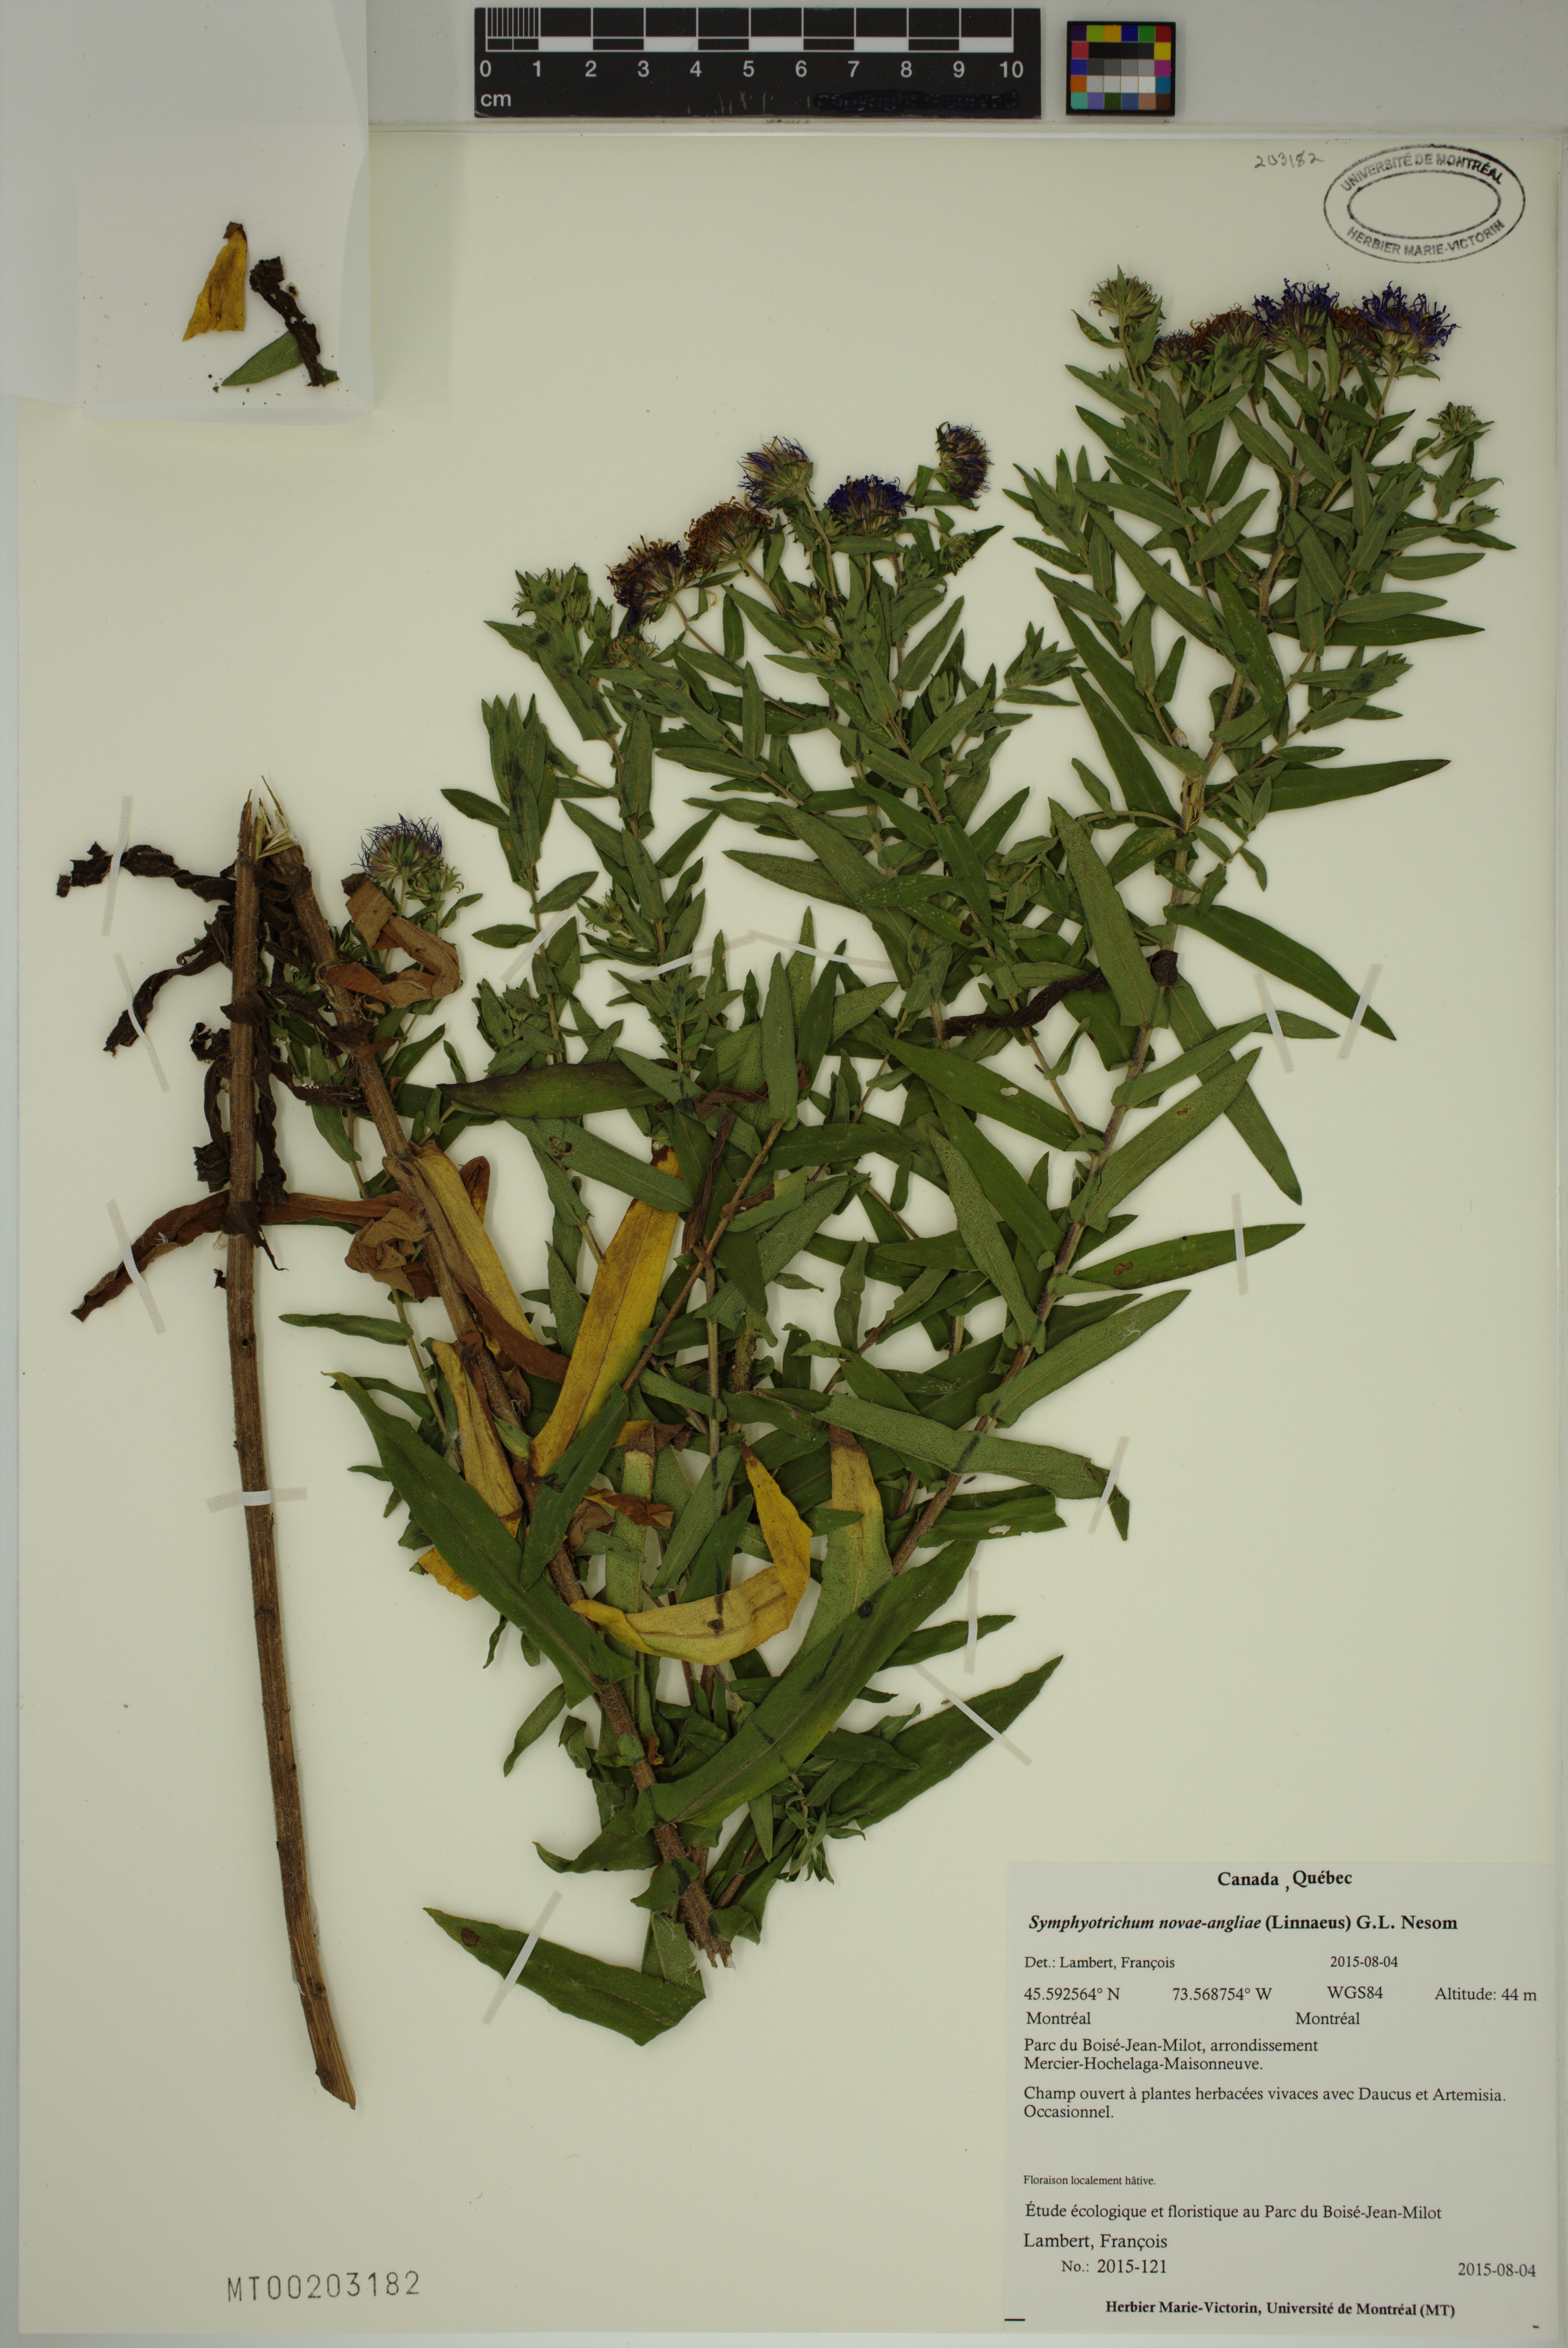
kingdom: Plantae
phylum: Tracheophyta
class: Magnoliopsida
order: Asterales
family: Asteraceae
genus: Symphyotrichum
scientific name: Symphyotrichum novae-angliae
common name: Michaelmas daisy
